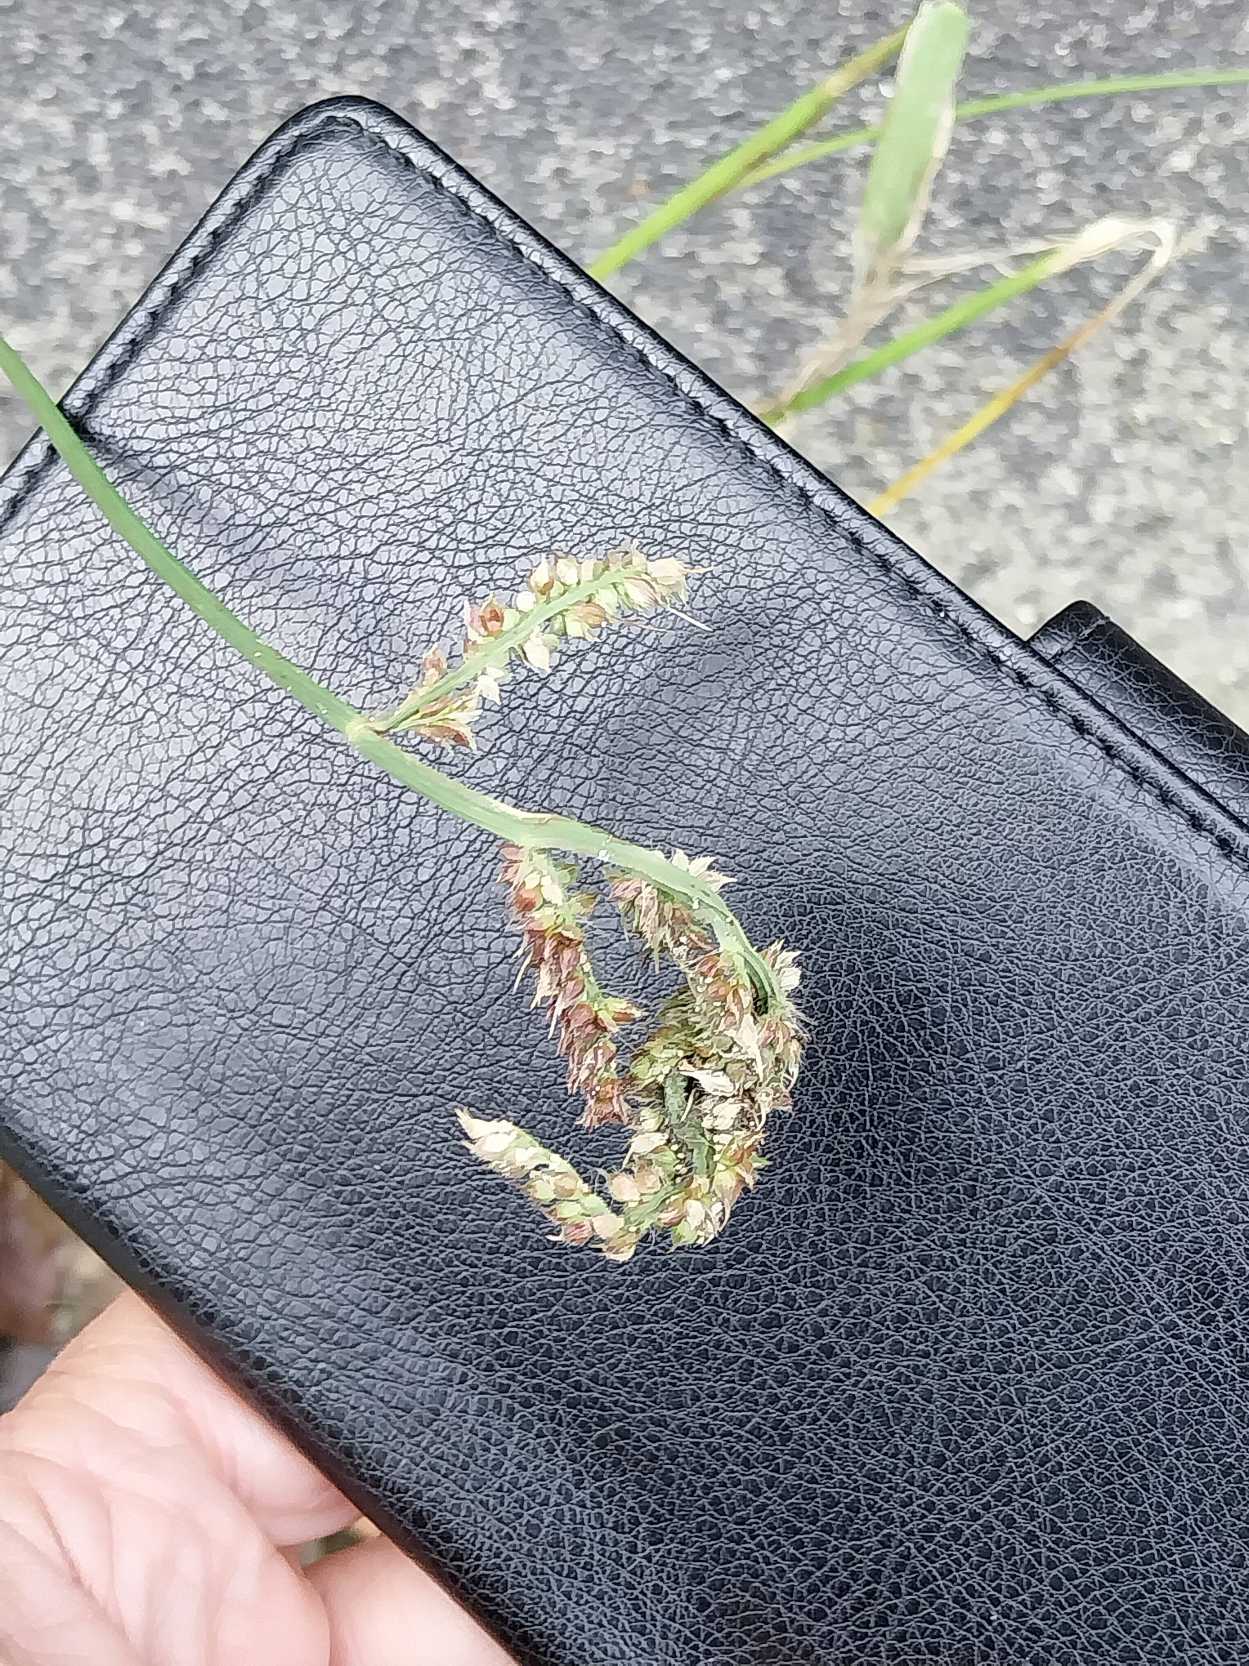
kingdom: Plantae
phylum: Tracheophyta
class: Liliopsida
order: Poales
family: Poaceae
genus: Echinochloa
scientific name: Echinochloa crus-galli
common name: Almindelig hanespore
